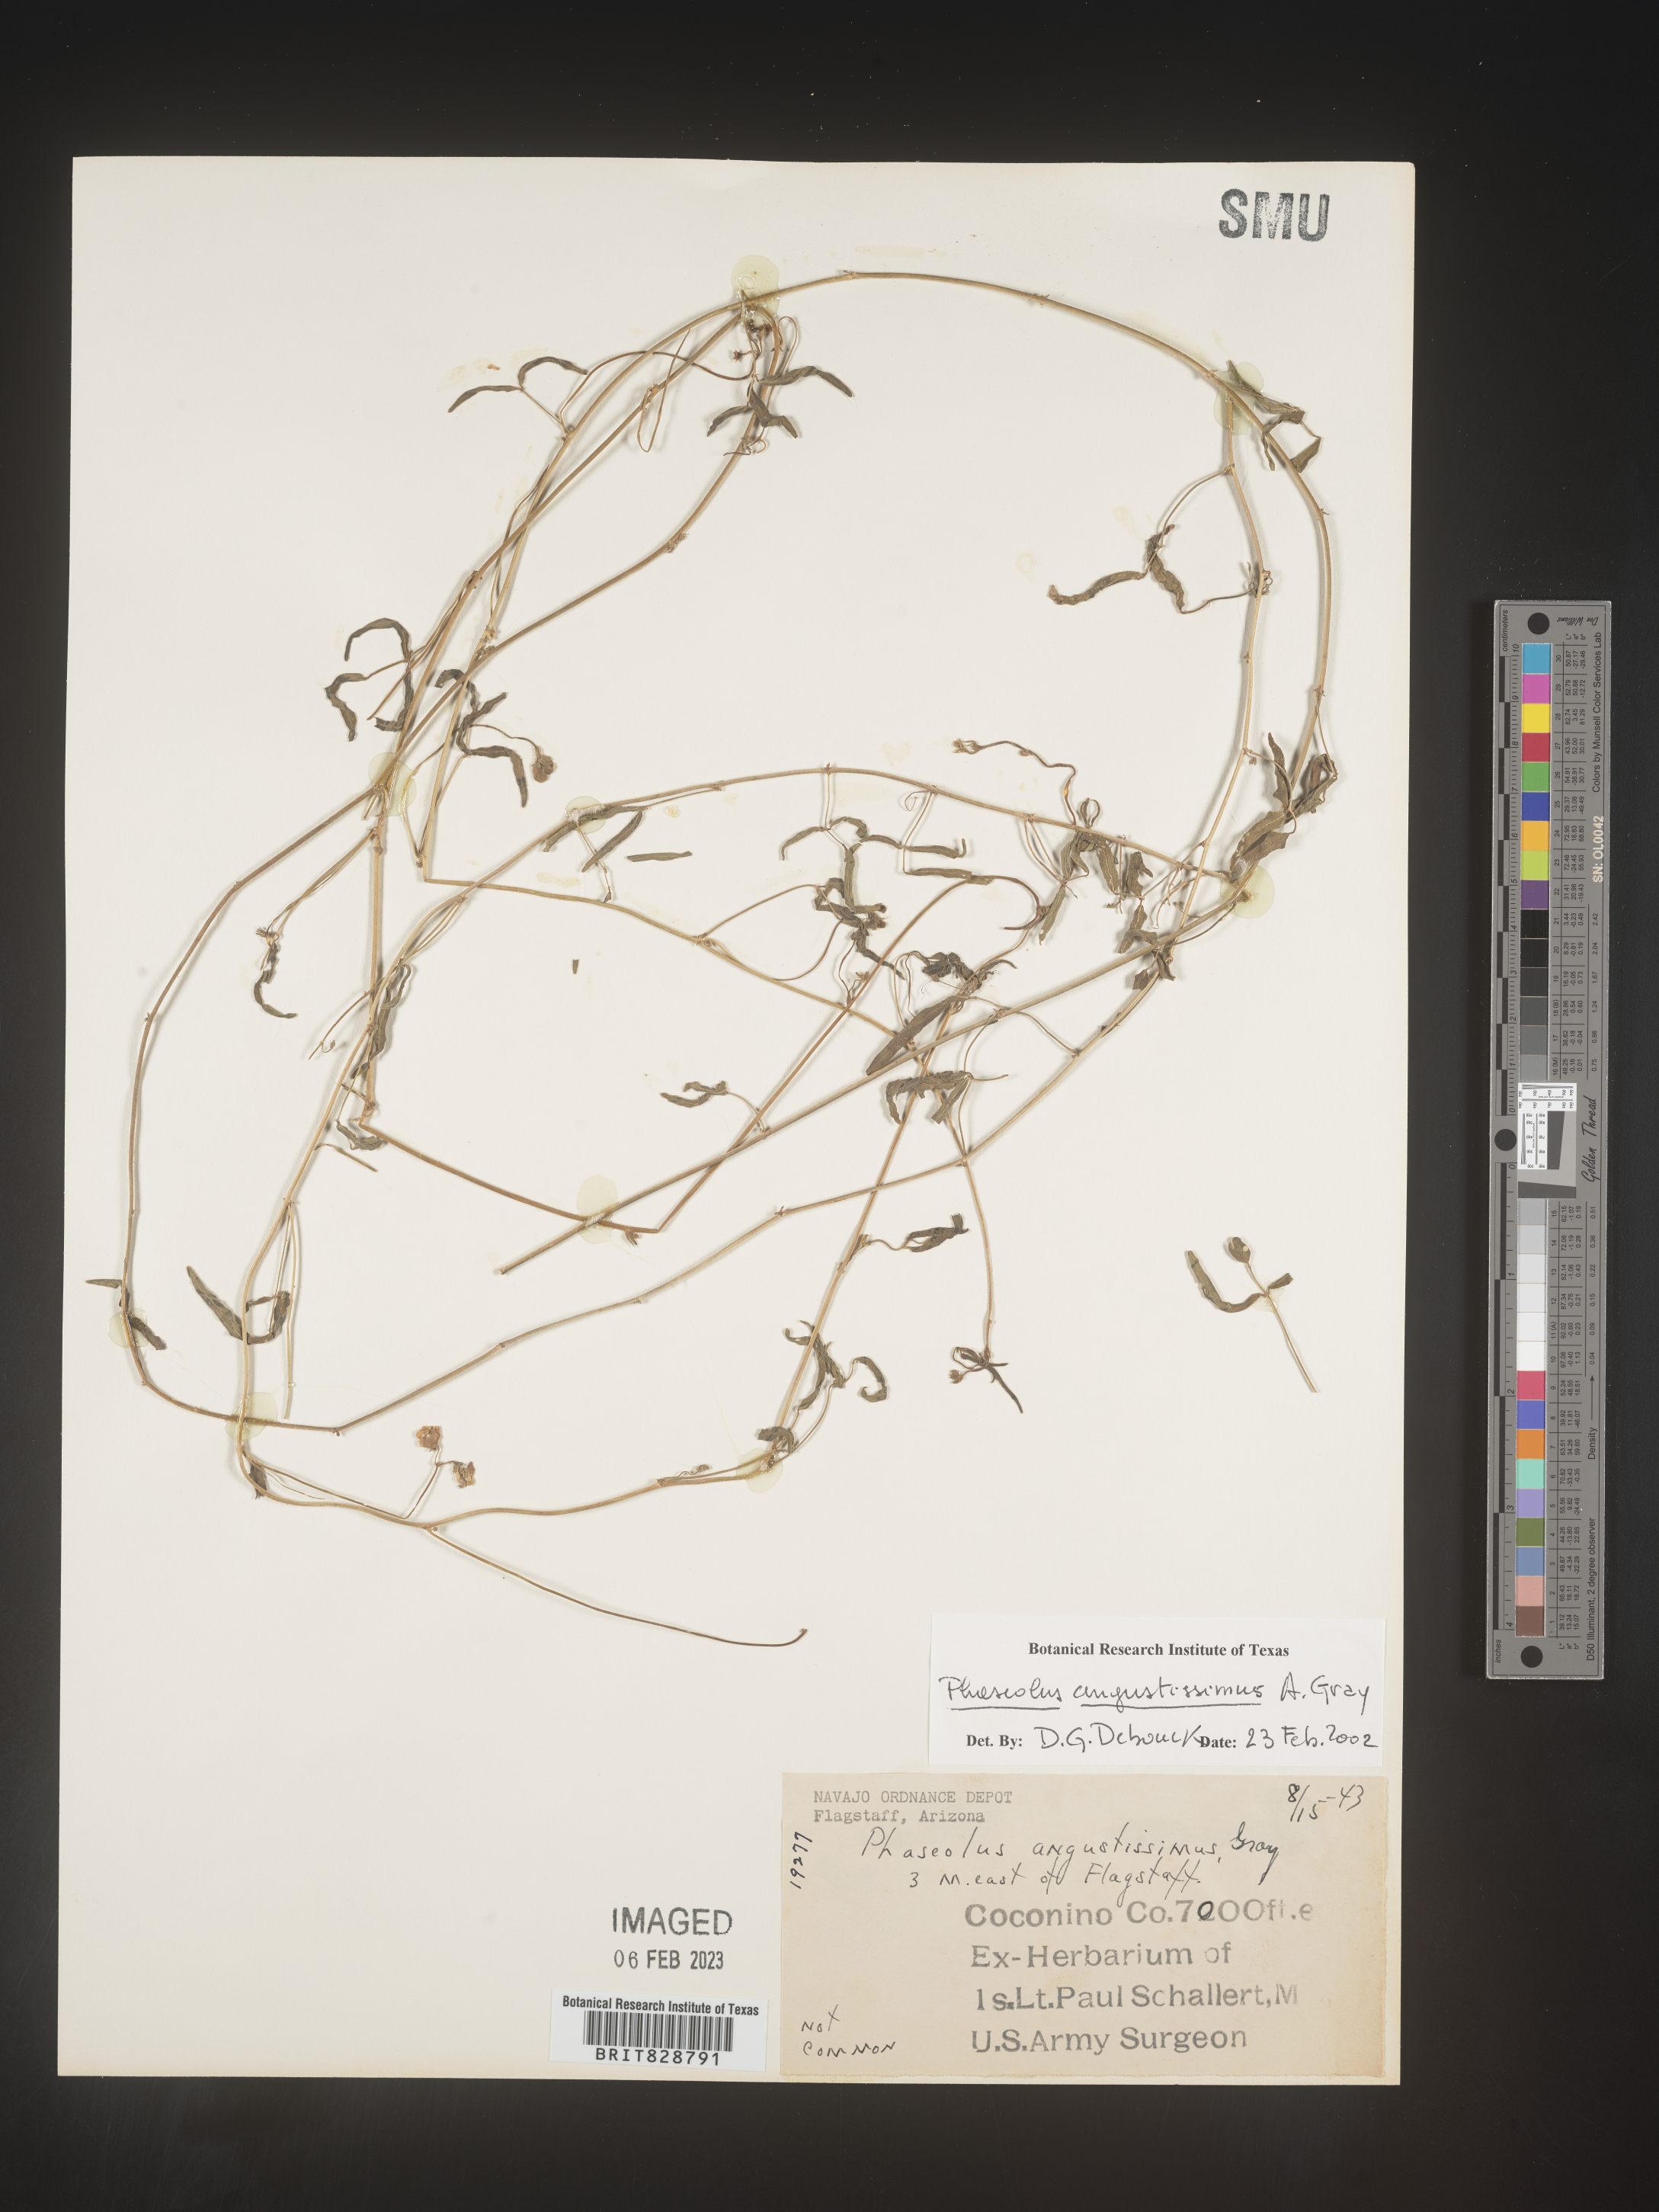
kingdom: Plantae
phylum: Tracheophyta
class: Magnoliopsida
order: Fabales
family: Fabaceae
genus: Phaseolus
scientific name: Phaseolus
